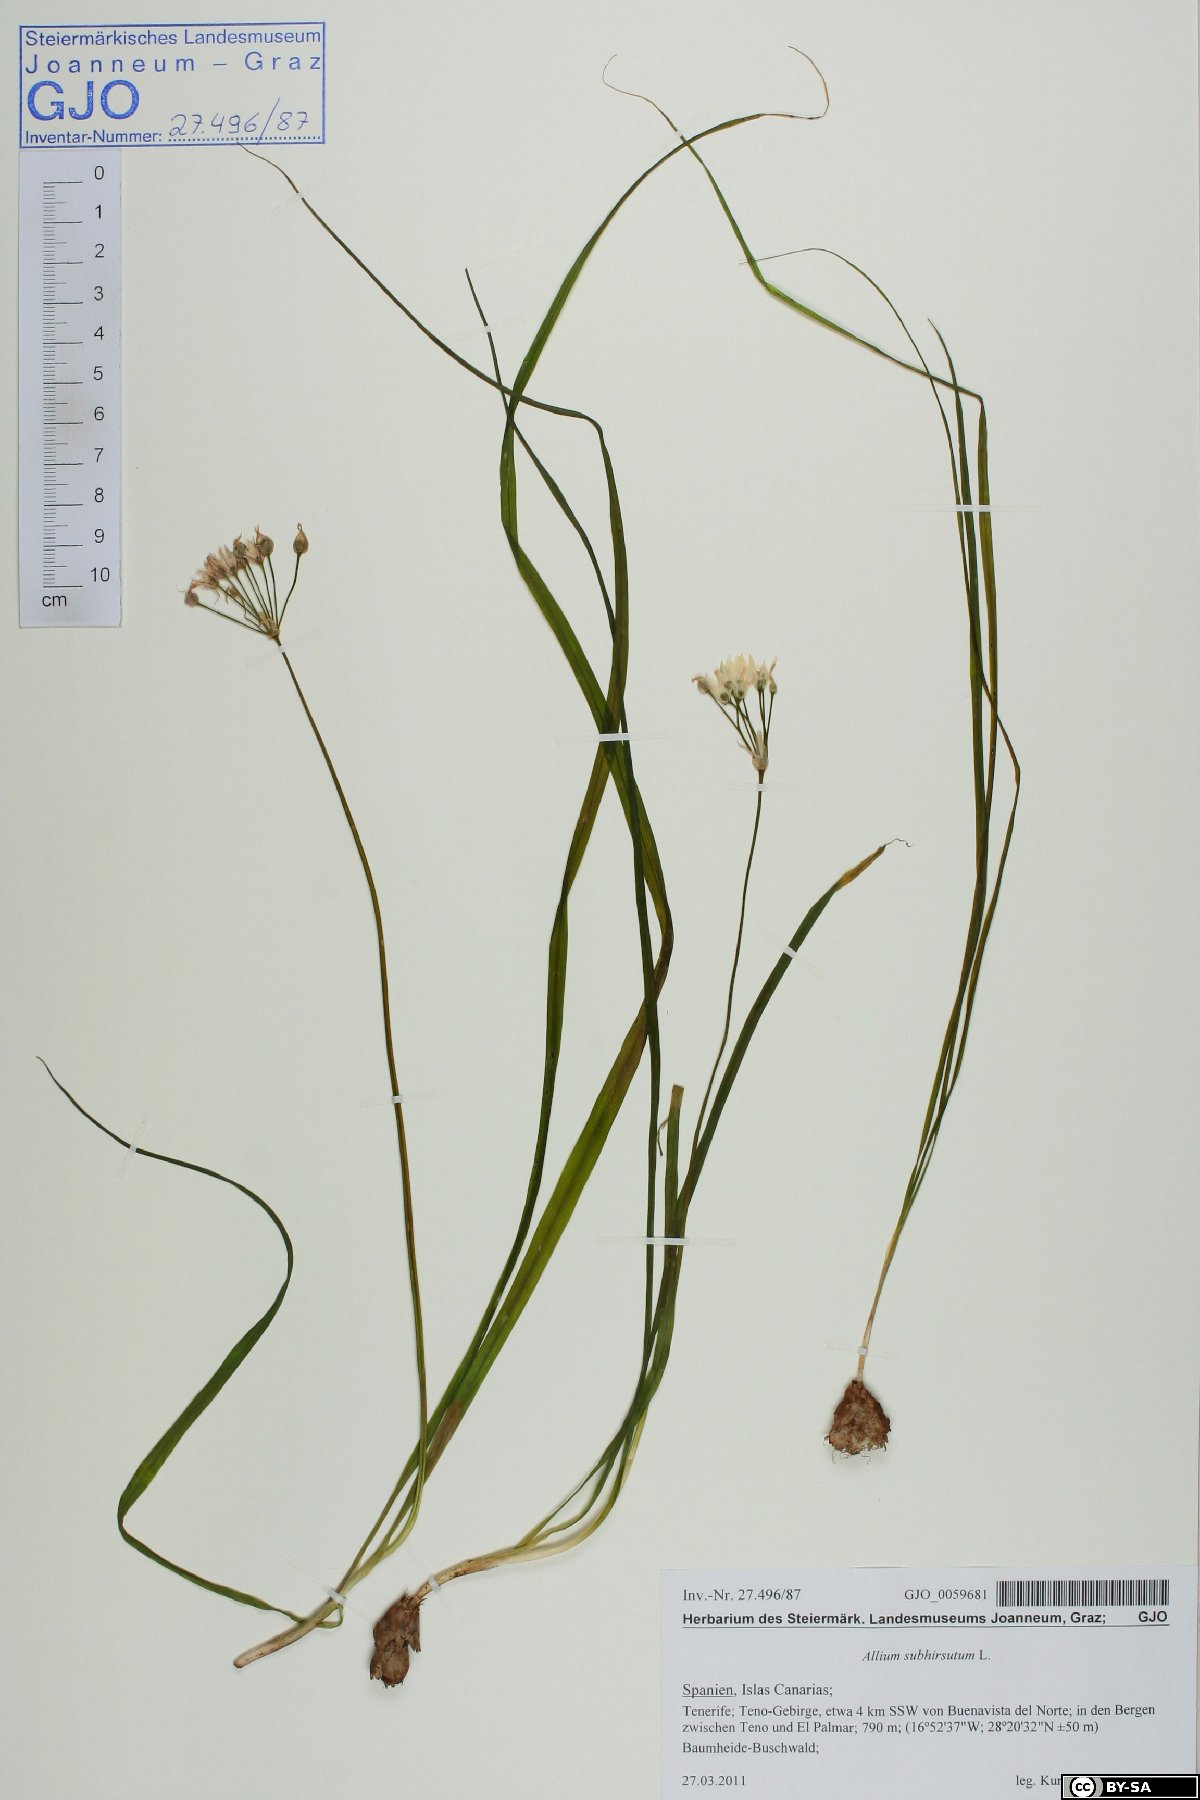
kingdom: Plantae
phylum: Tracheophyta
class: Liliopsida
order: Asparagales
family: Amaryllidaceae
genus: Allium
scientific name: Allium subhirsutum
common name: Hairy garlic
